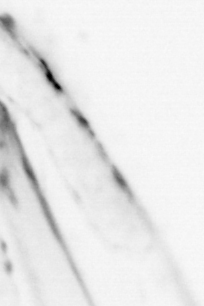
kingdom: Animalia
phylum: Chaetognatha
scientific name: Chaetognatha
